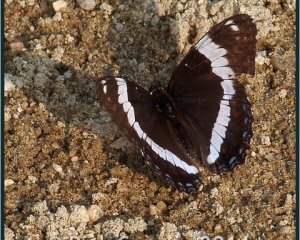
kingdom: Animalia
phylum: Arthropoda
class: Insecta
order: Lepidoptera
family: Nymphalidae
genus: Limenitis
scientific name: Limenitis arthemis
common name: Red-spotted Admiral
